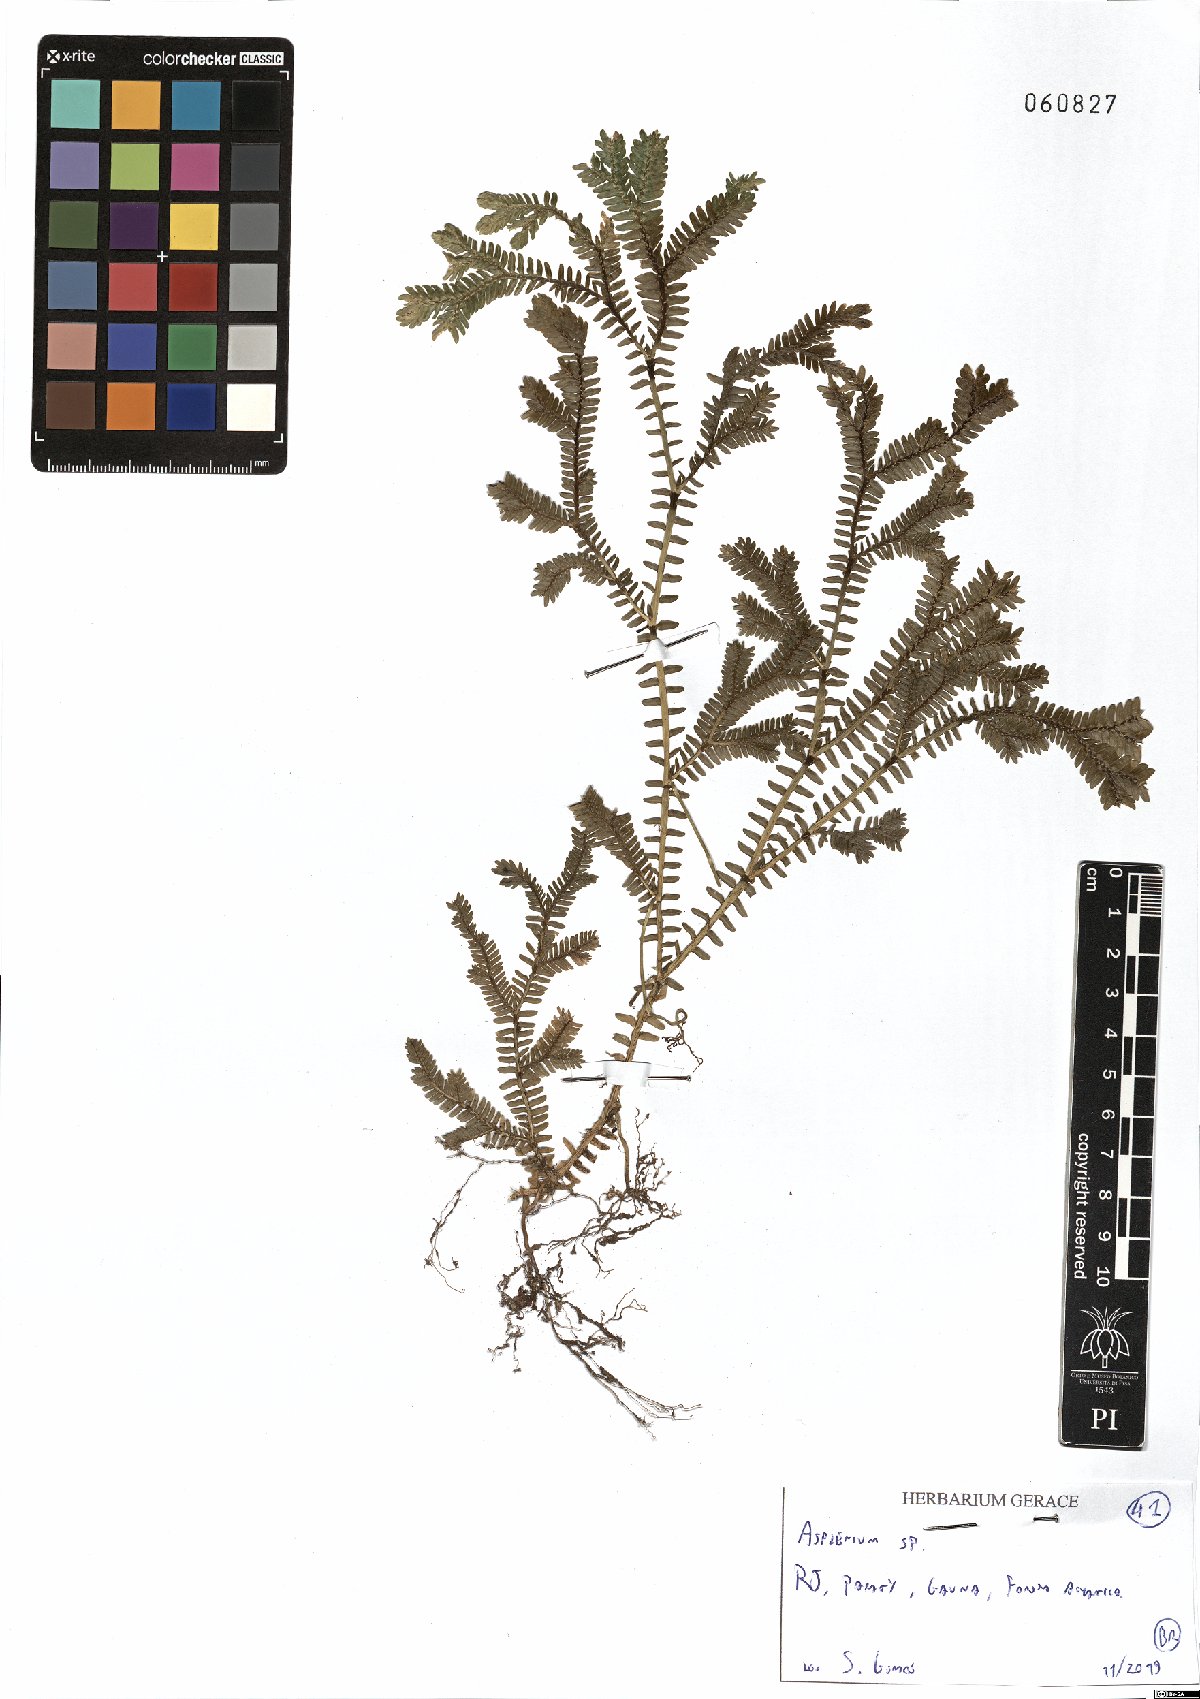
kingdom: Plantae
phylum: Tracheophyta
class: Polypodiopsida
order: Polypodiales
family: Aspleniaceae
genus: Asplenium
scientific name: Asplenium
